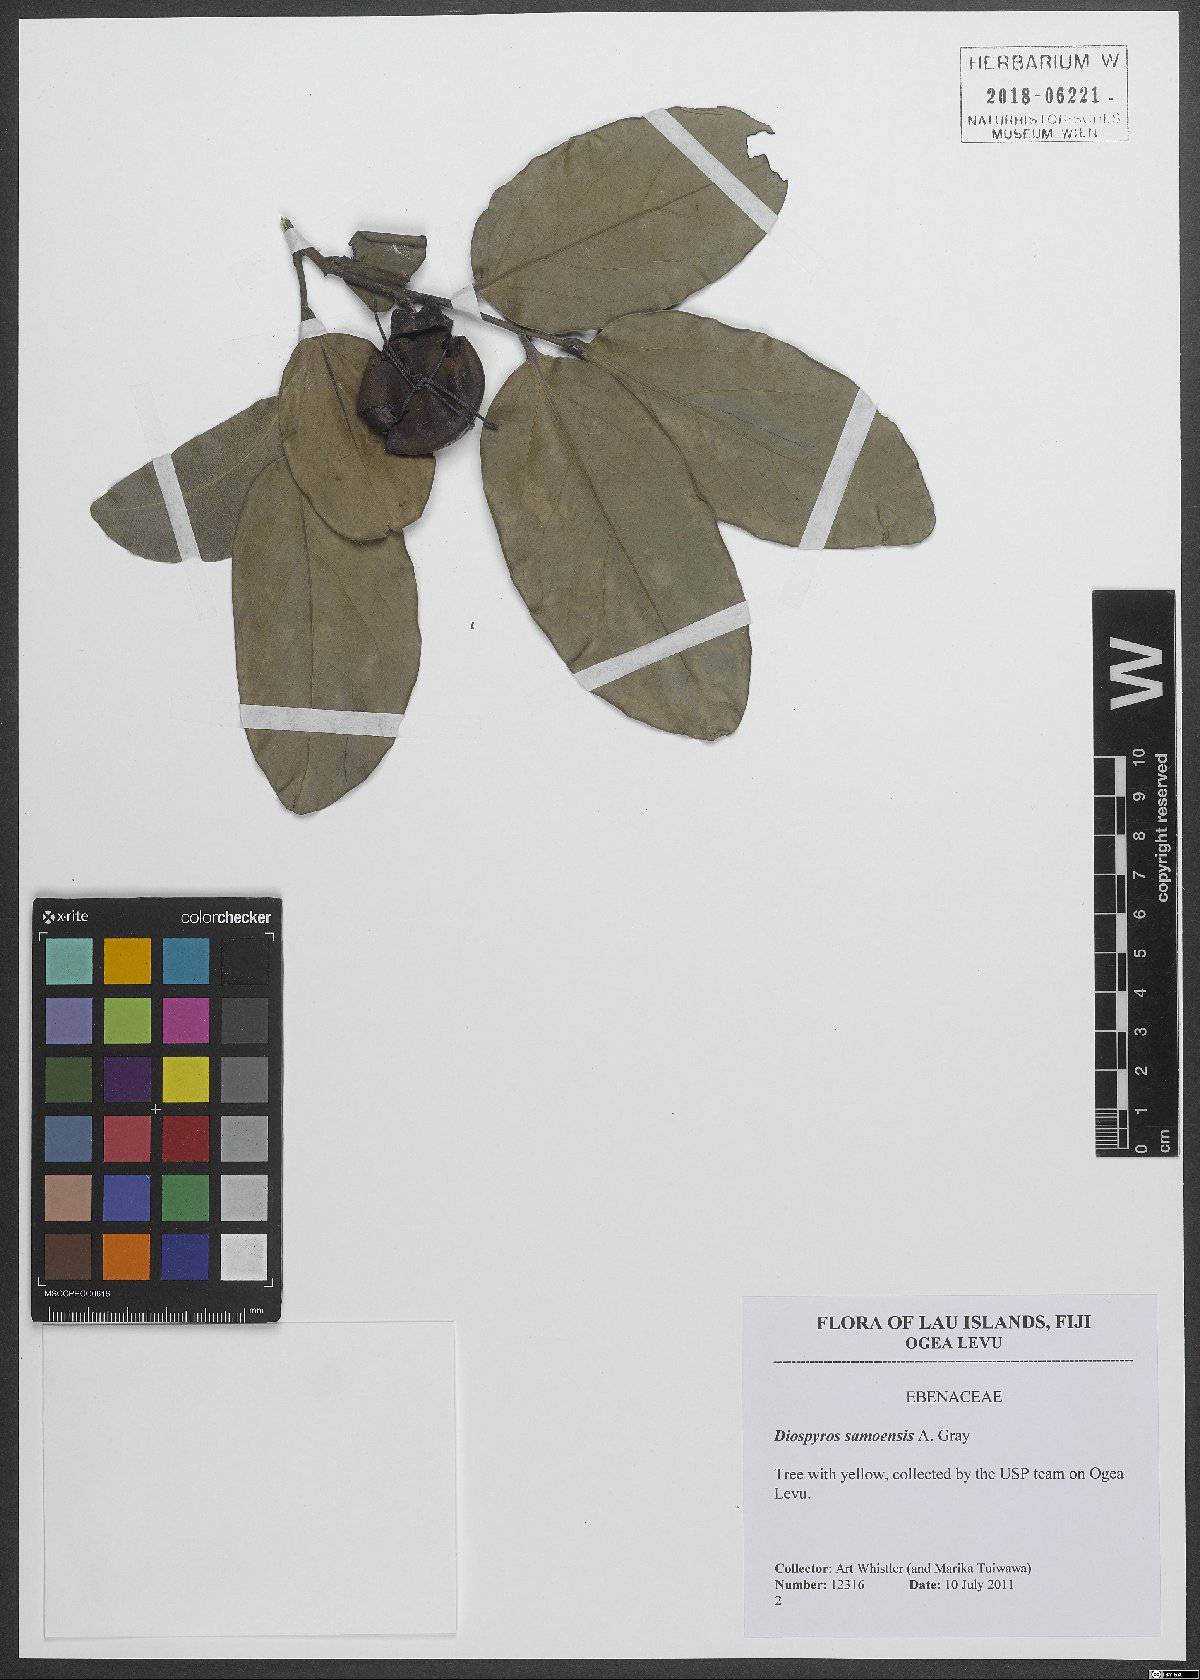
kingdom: Plantae
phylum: Tracheophyta
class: Magnoliopsida
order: Ericales
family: Ebenaceae
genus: Diospyros
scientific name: Diospyros samoensis
